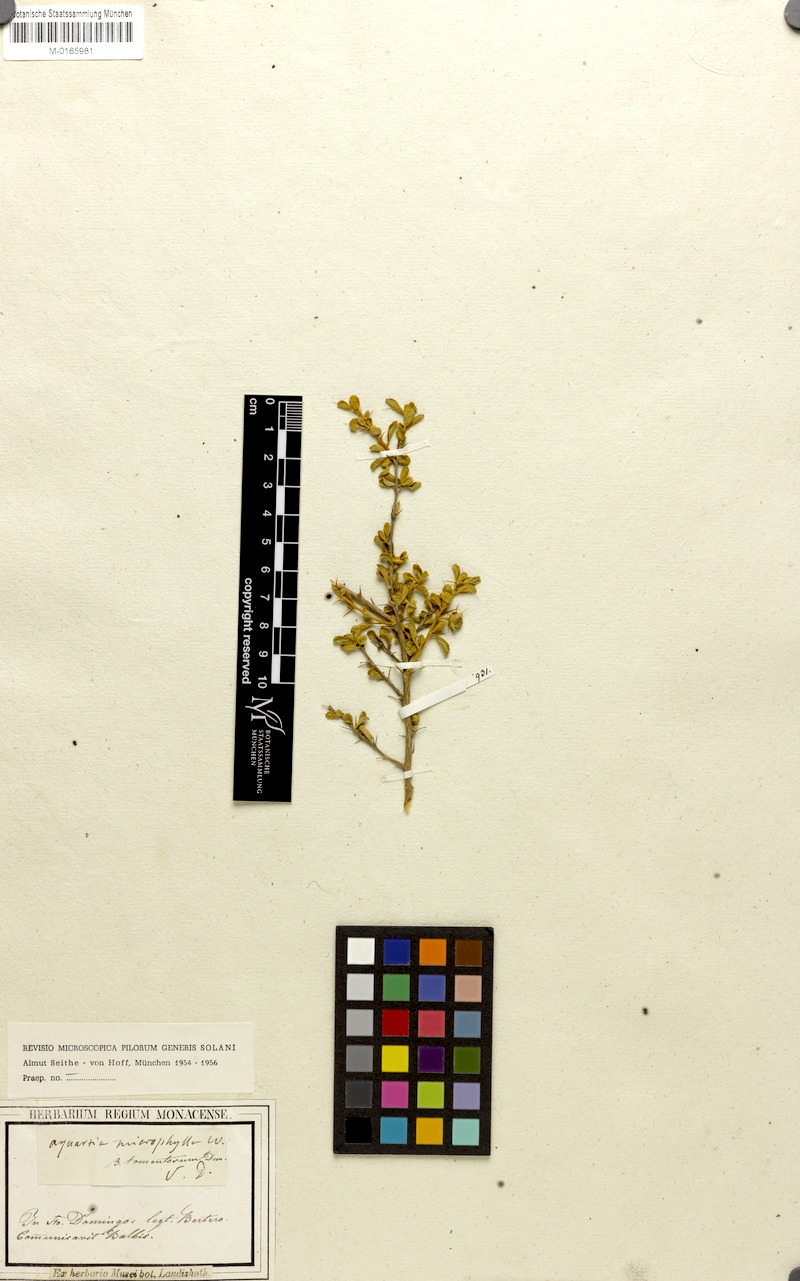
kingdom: Plantae
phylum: Tracheophyta
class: Magnoliopsida
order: Solanales
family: Solanaceae
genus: Solanum
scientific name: Solanum infundibuliforme
